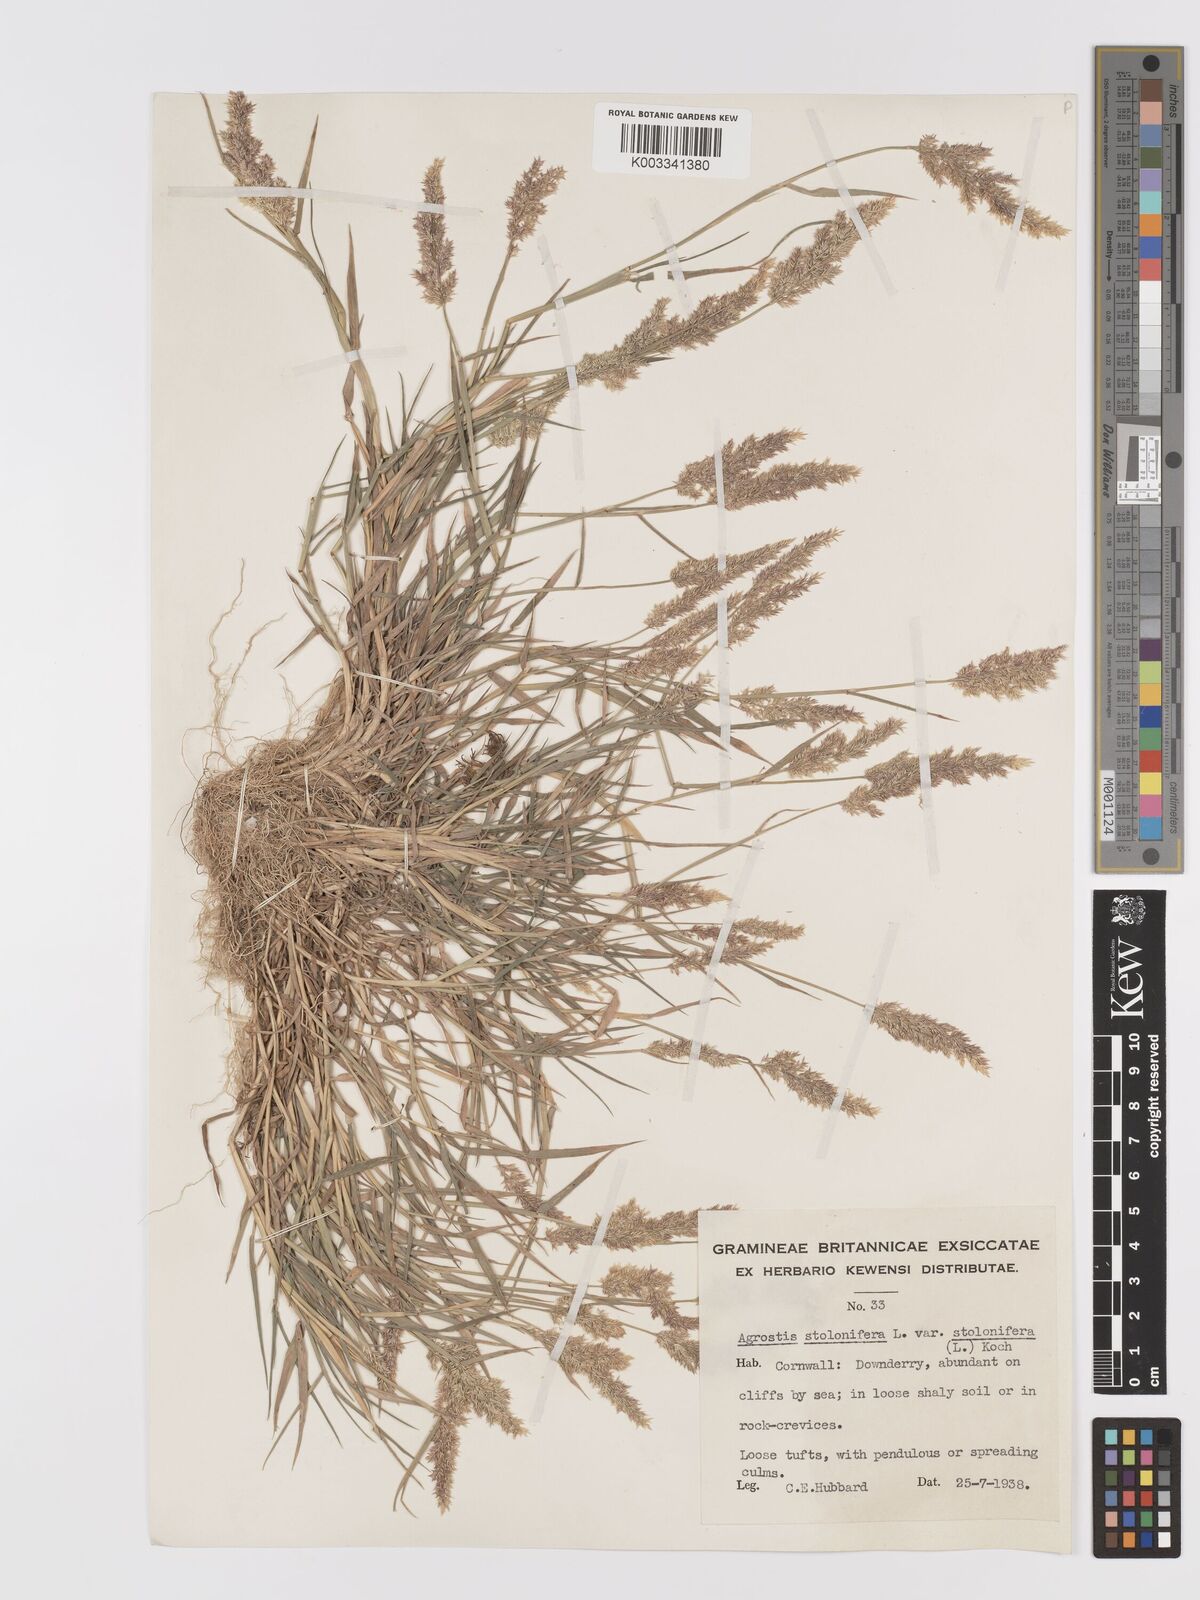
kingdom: Plantae
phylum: Tracheophyta
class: Liliopsida
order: Poales
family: Poaceae
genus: Agrostis
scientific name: Agrostis stolonifera
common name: Creeping bentgrass
